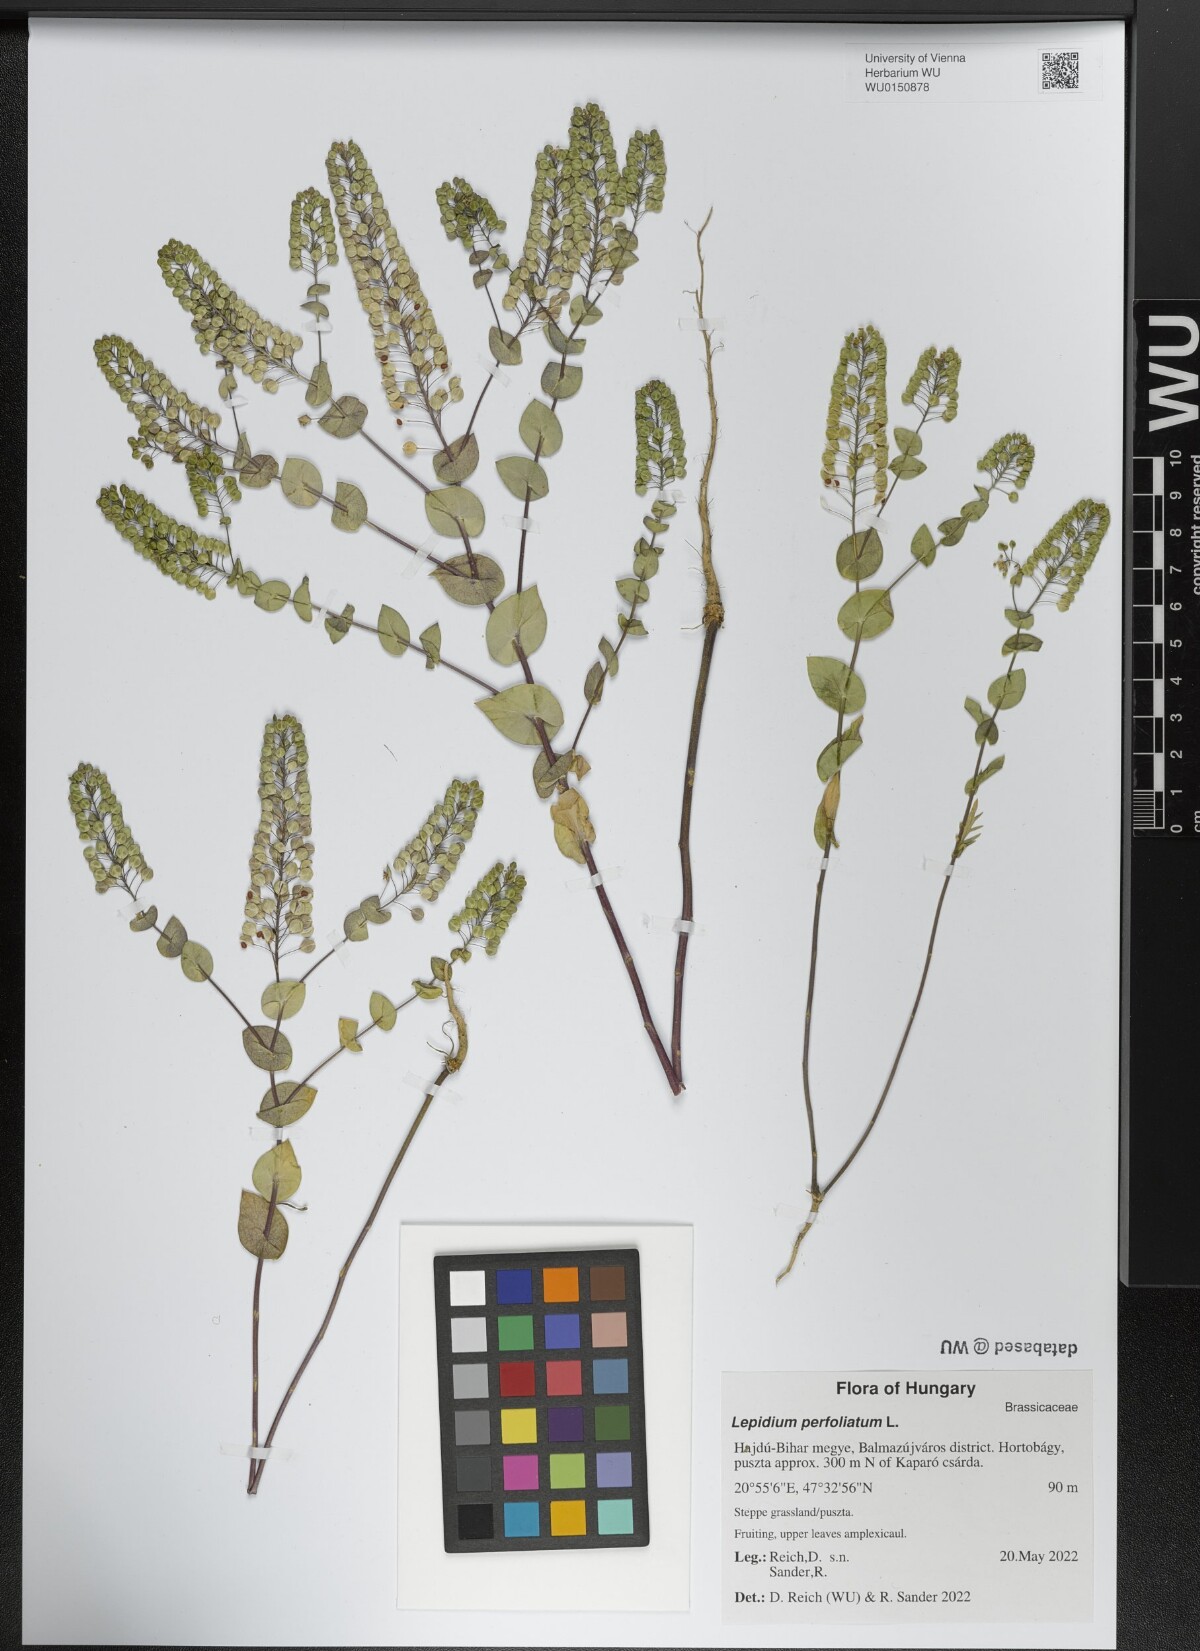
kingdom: Plantae
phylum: Tracheophyta
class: Magnoliopsida
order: Brassicales
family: Brassicaceae
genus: Lepidium
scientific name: Lepidium perfoliatum
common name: Perfoliate pepperwort
